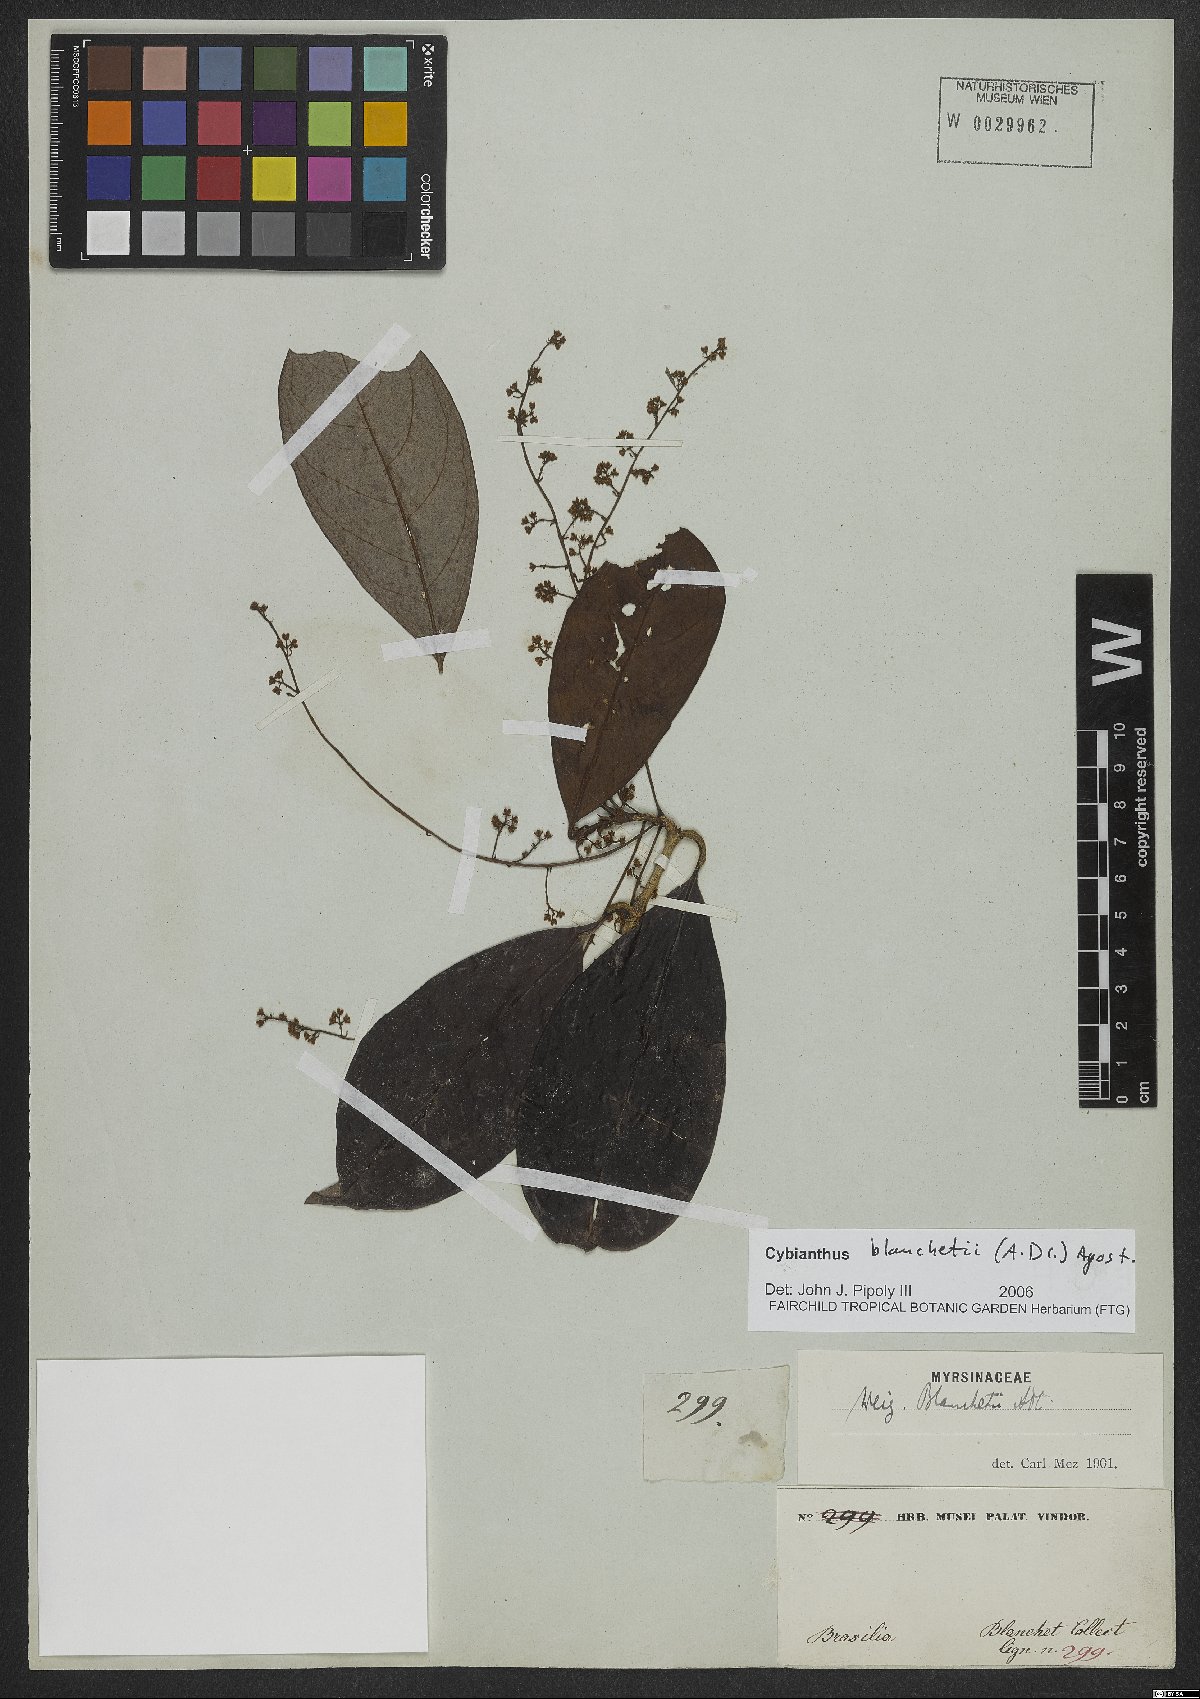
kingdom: Plantae
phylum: Tracheophyta
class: Magnoliopsida
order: Ericales
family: Primulaceae
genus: Cybianthus
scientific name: Cybianthus blanchetii
